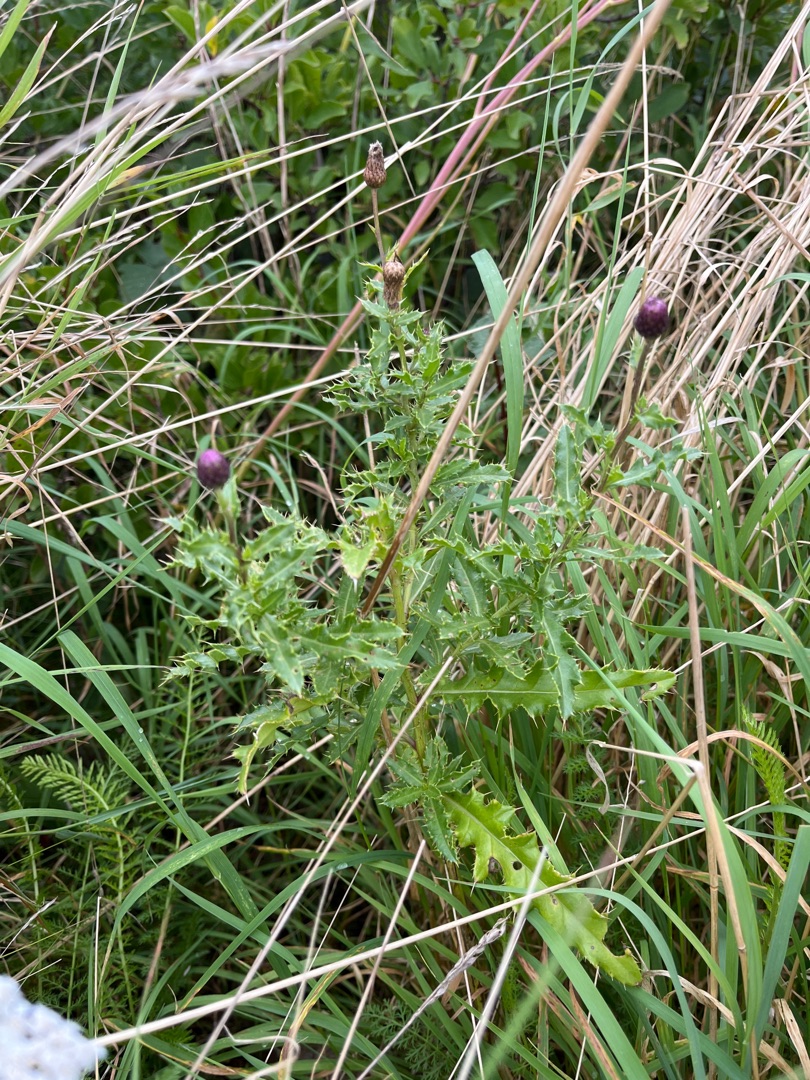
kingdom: Plantae
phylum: Tracheophyta
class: Magnoliopsida
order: Asterales
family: Asteraceae
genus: Cirsium
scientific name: Cirsium arvense
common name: Ager-tidsel
